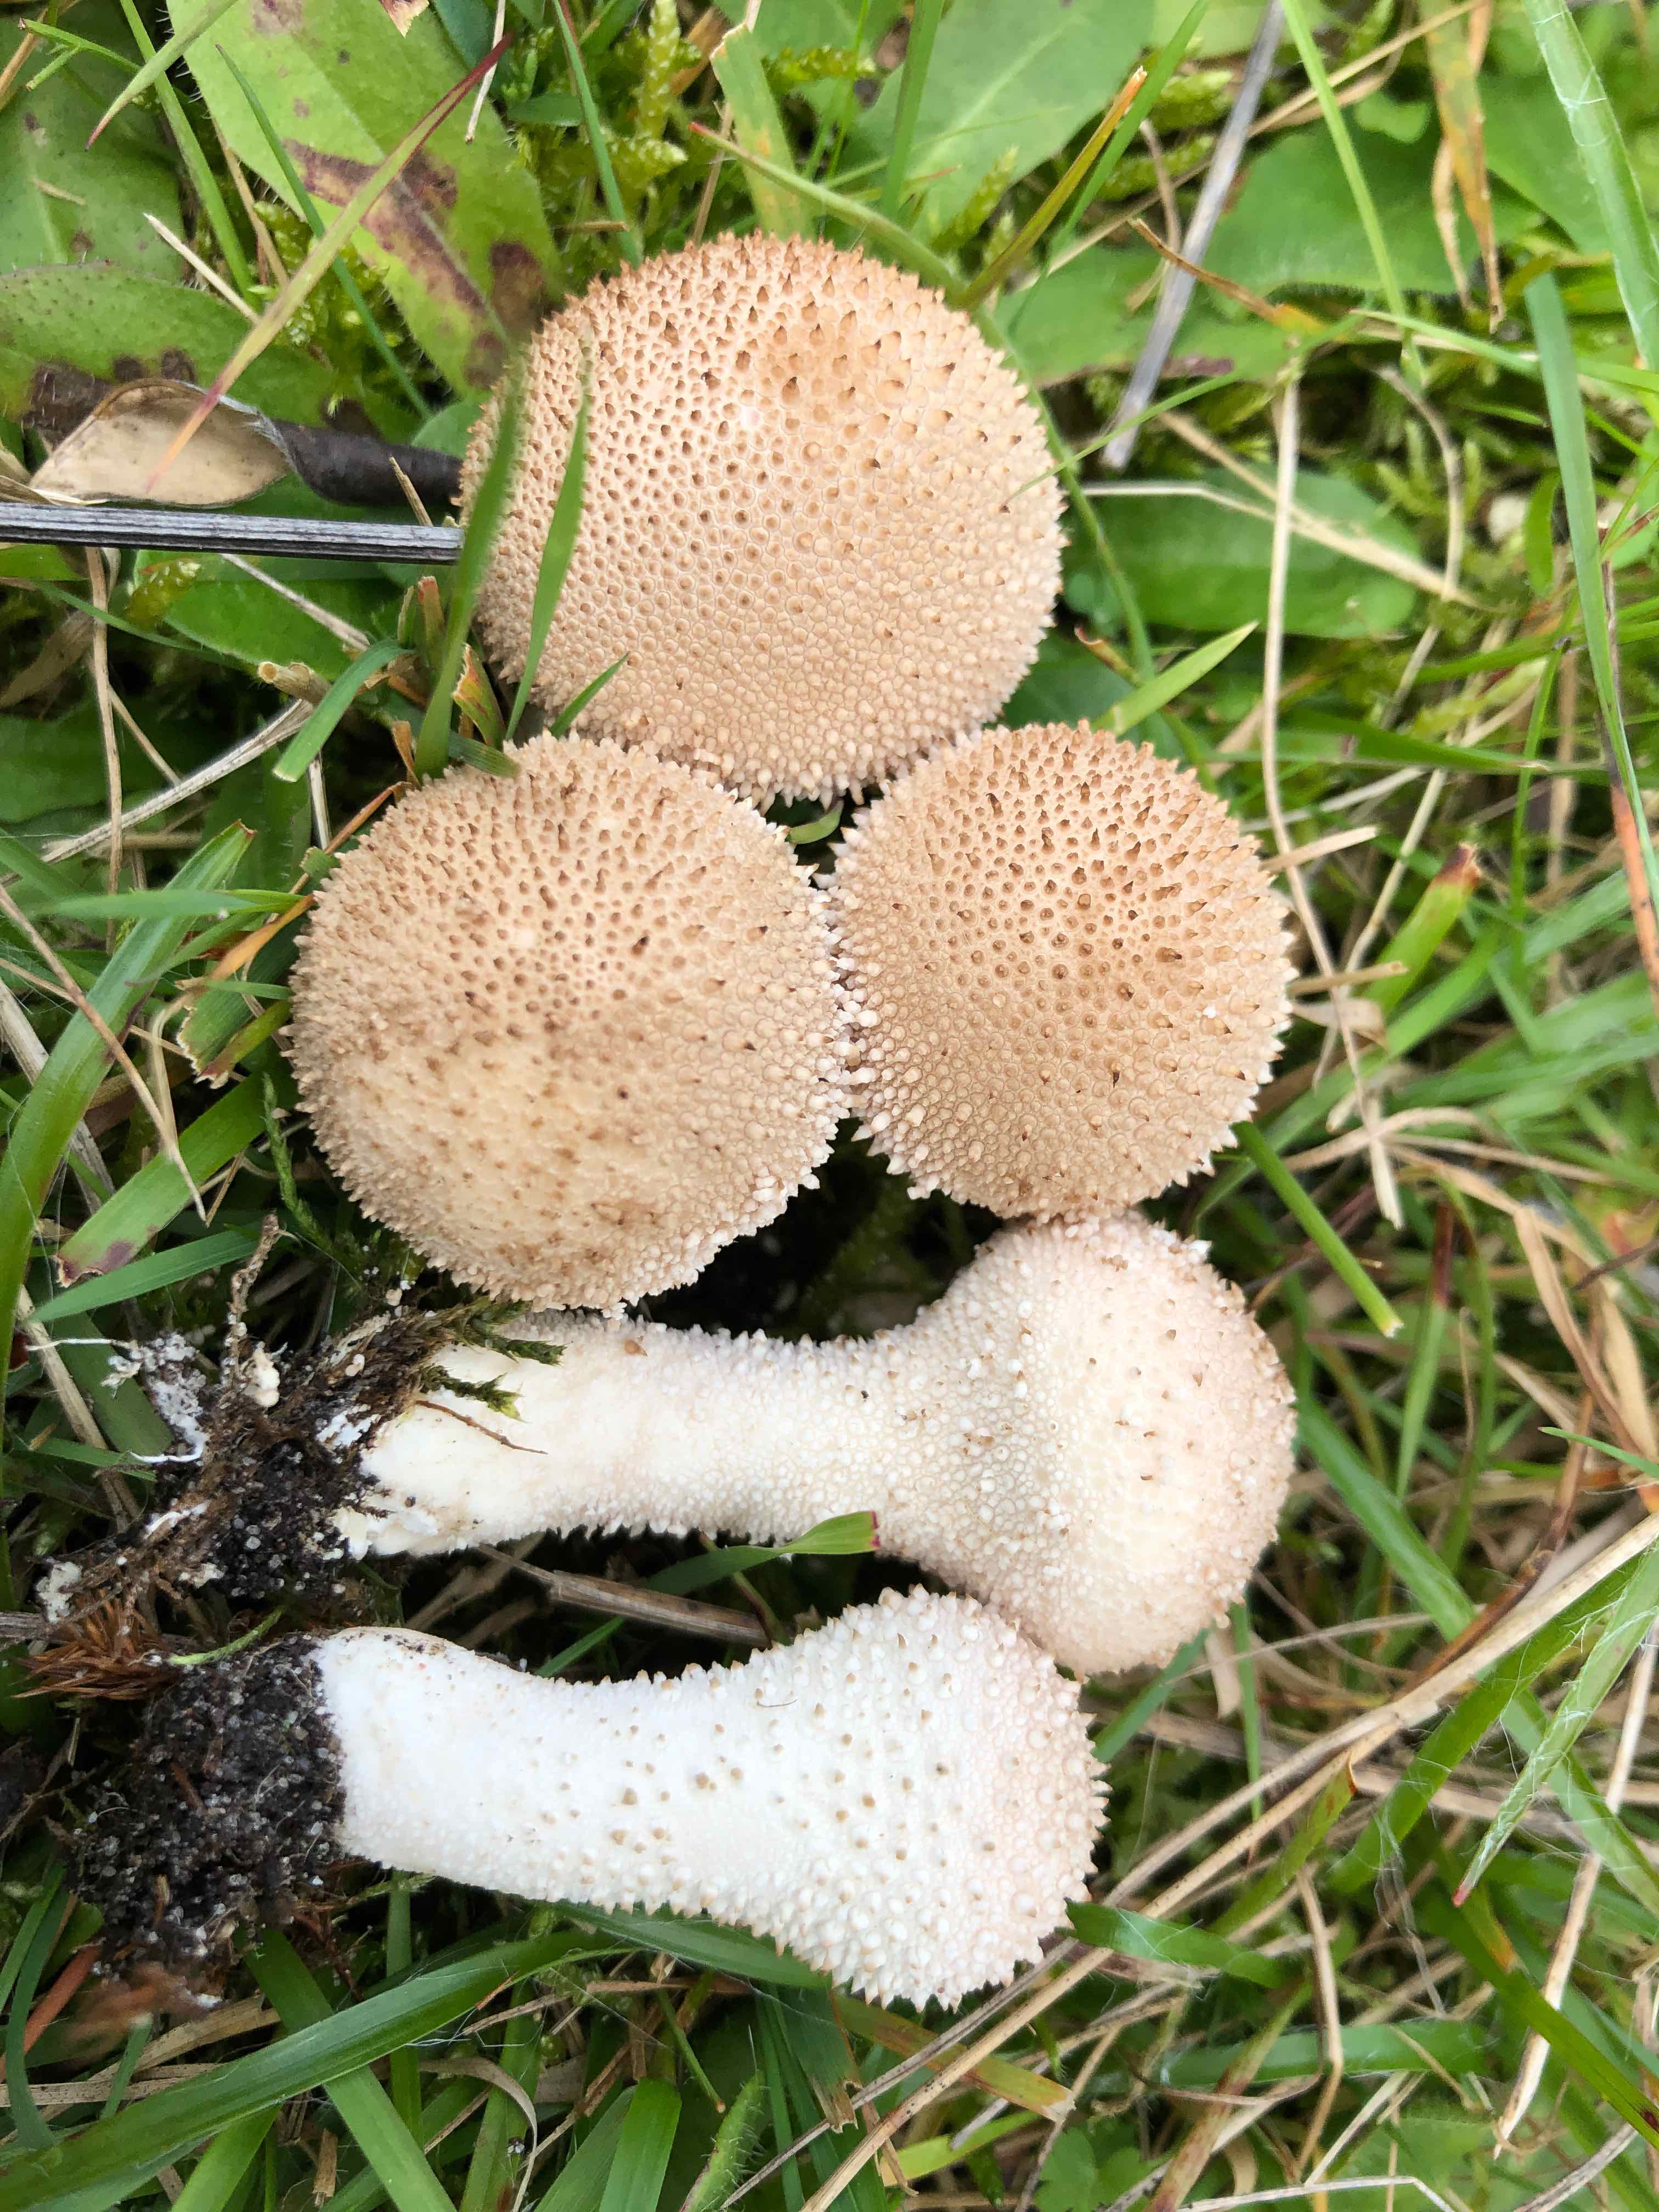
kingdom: Fungi
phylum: Basidiomycota
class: Agaricomycetes
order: Agaricales
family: Lycoperdaceae
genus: Lycoperdon
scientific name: Lycoperdon perlatum
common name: krystal-støvbold
